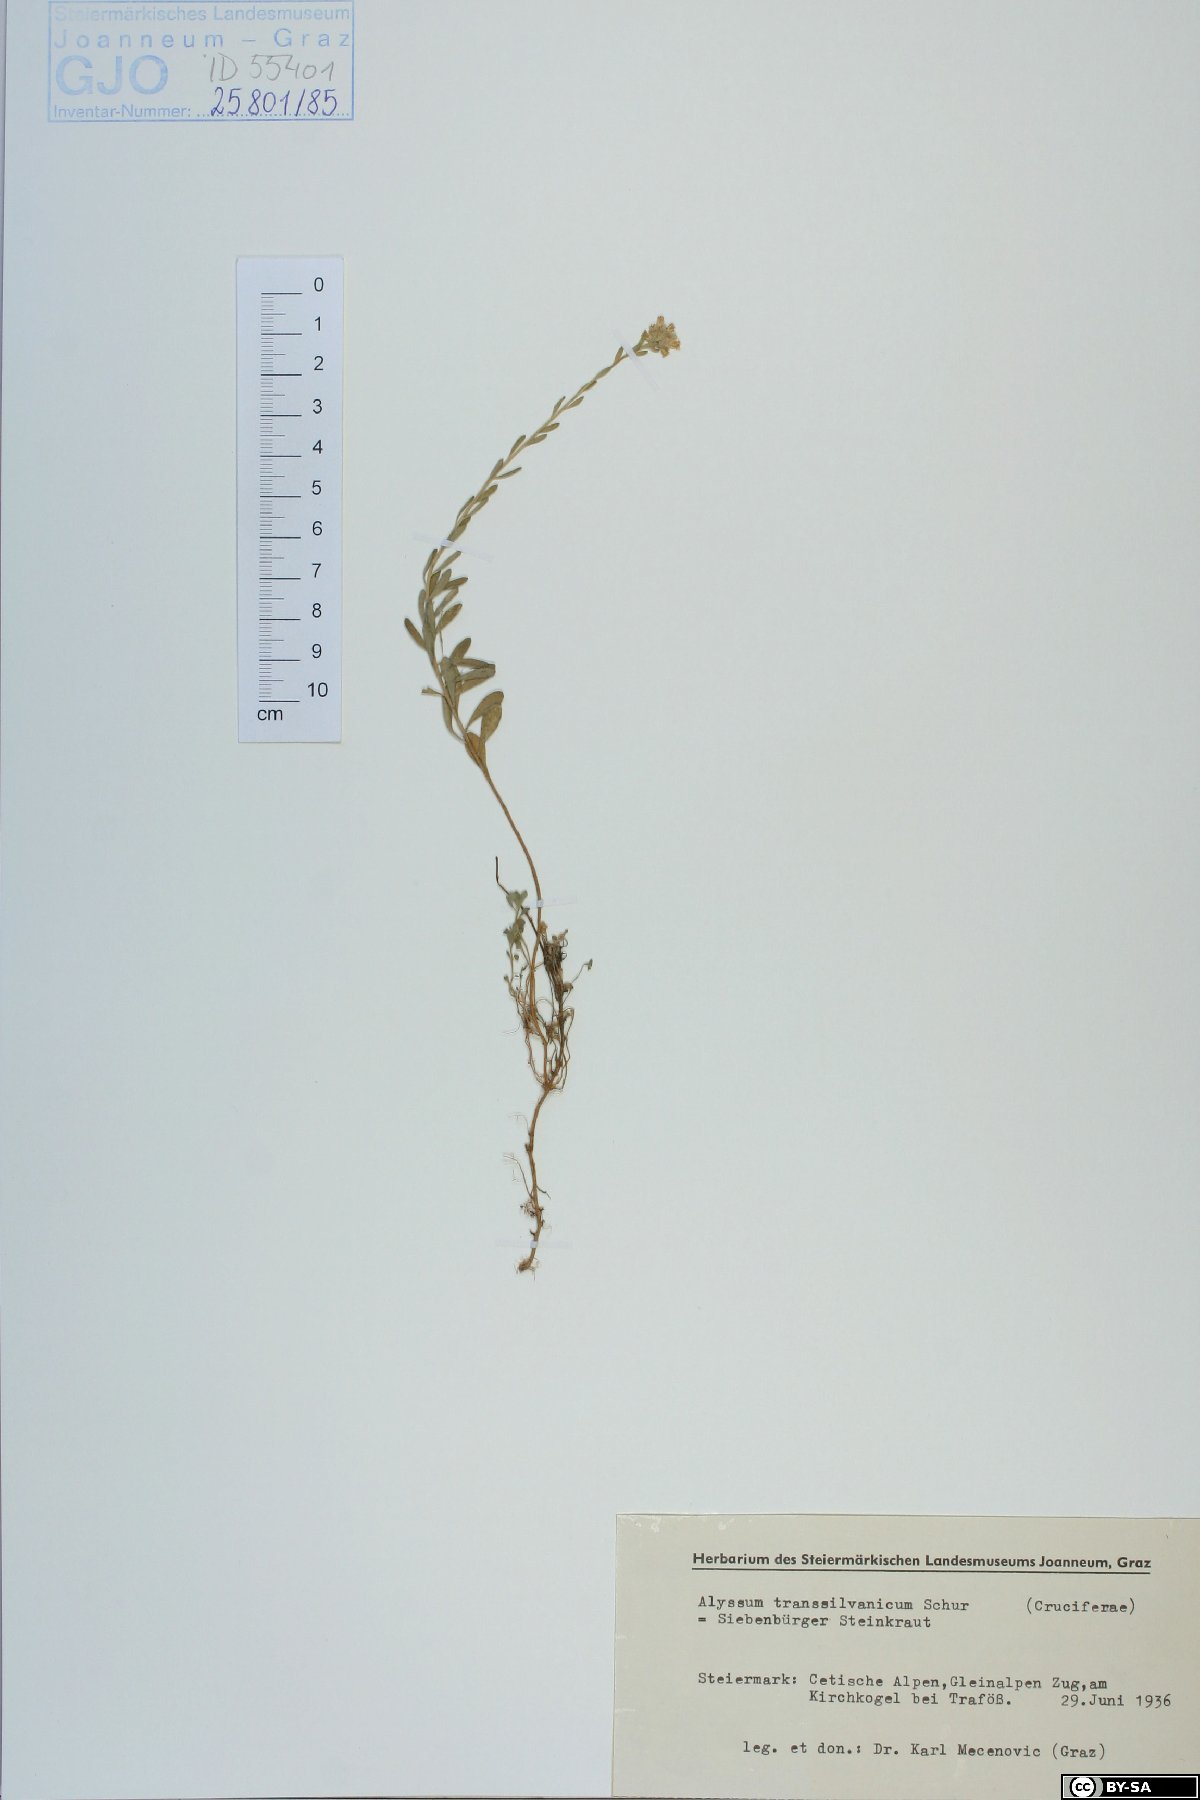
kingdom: Plantae
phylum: Tracheophyta
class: Magnoliopsida
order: Brassicales
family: Brassicaceae
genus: Alyssum
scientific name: Alyssum repens
